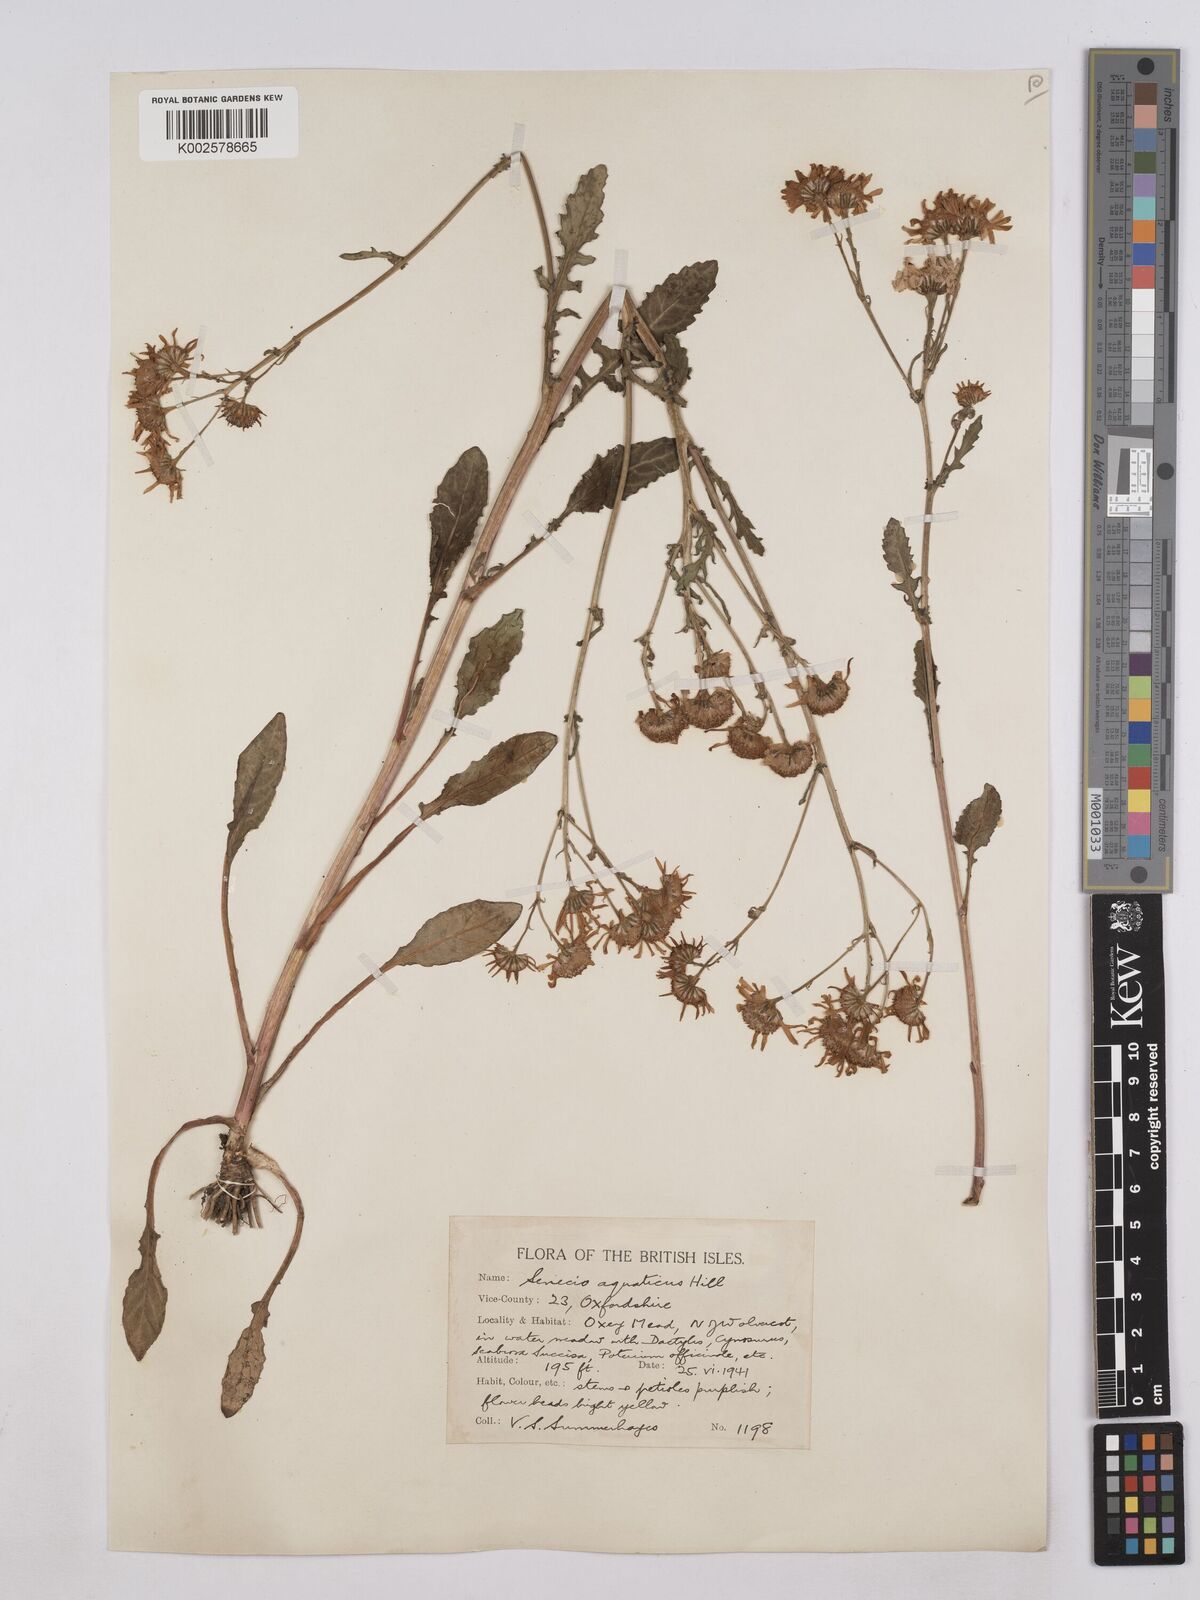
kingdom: Plantae
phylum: Tracheophyta
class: Magnoliopsida
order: Asterales
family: Asteraceae
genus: Jacobaea
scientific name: Jacobaea aquatica
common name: Water ragwort
